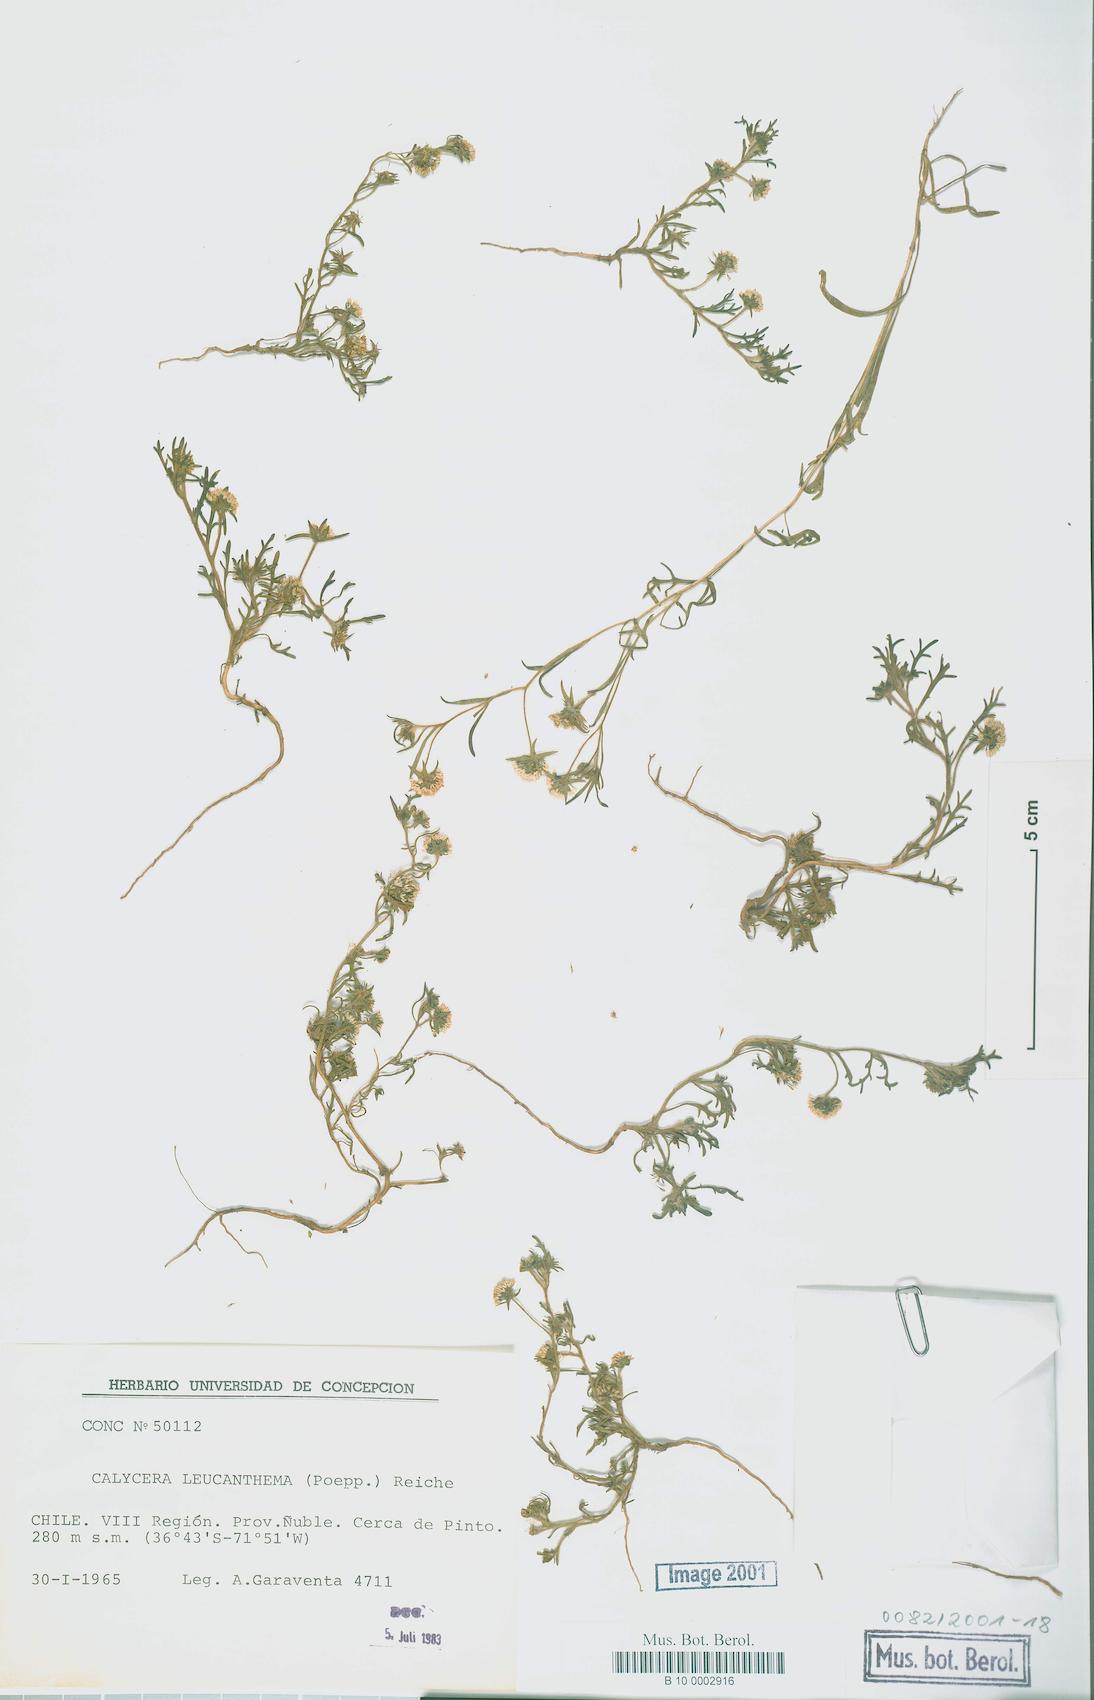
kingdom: Plantae
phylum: Tracheophyta
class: Magnoliopsida
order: Asterales
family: Calyceraceae
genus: Leucocera
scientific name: Leucocera leucanthema
